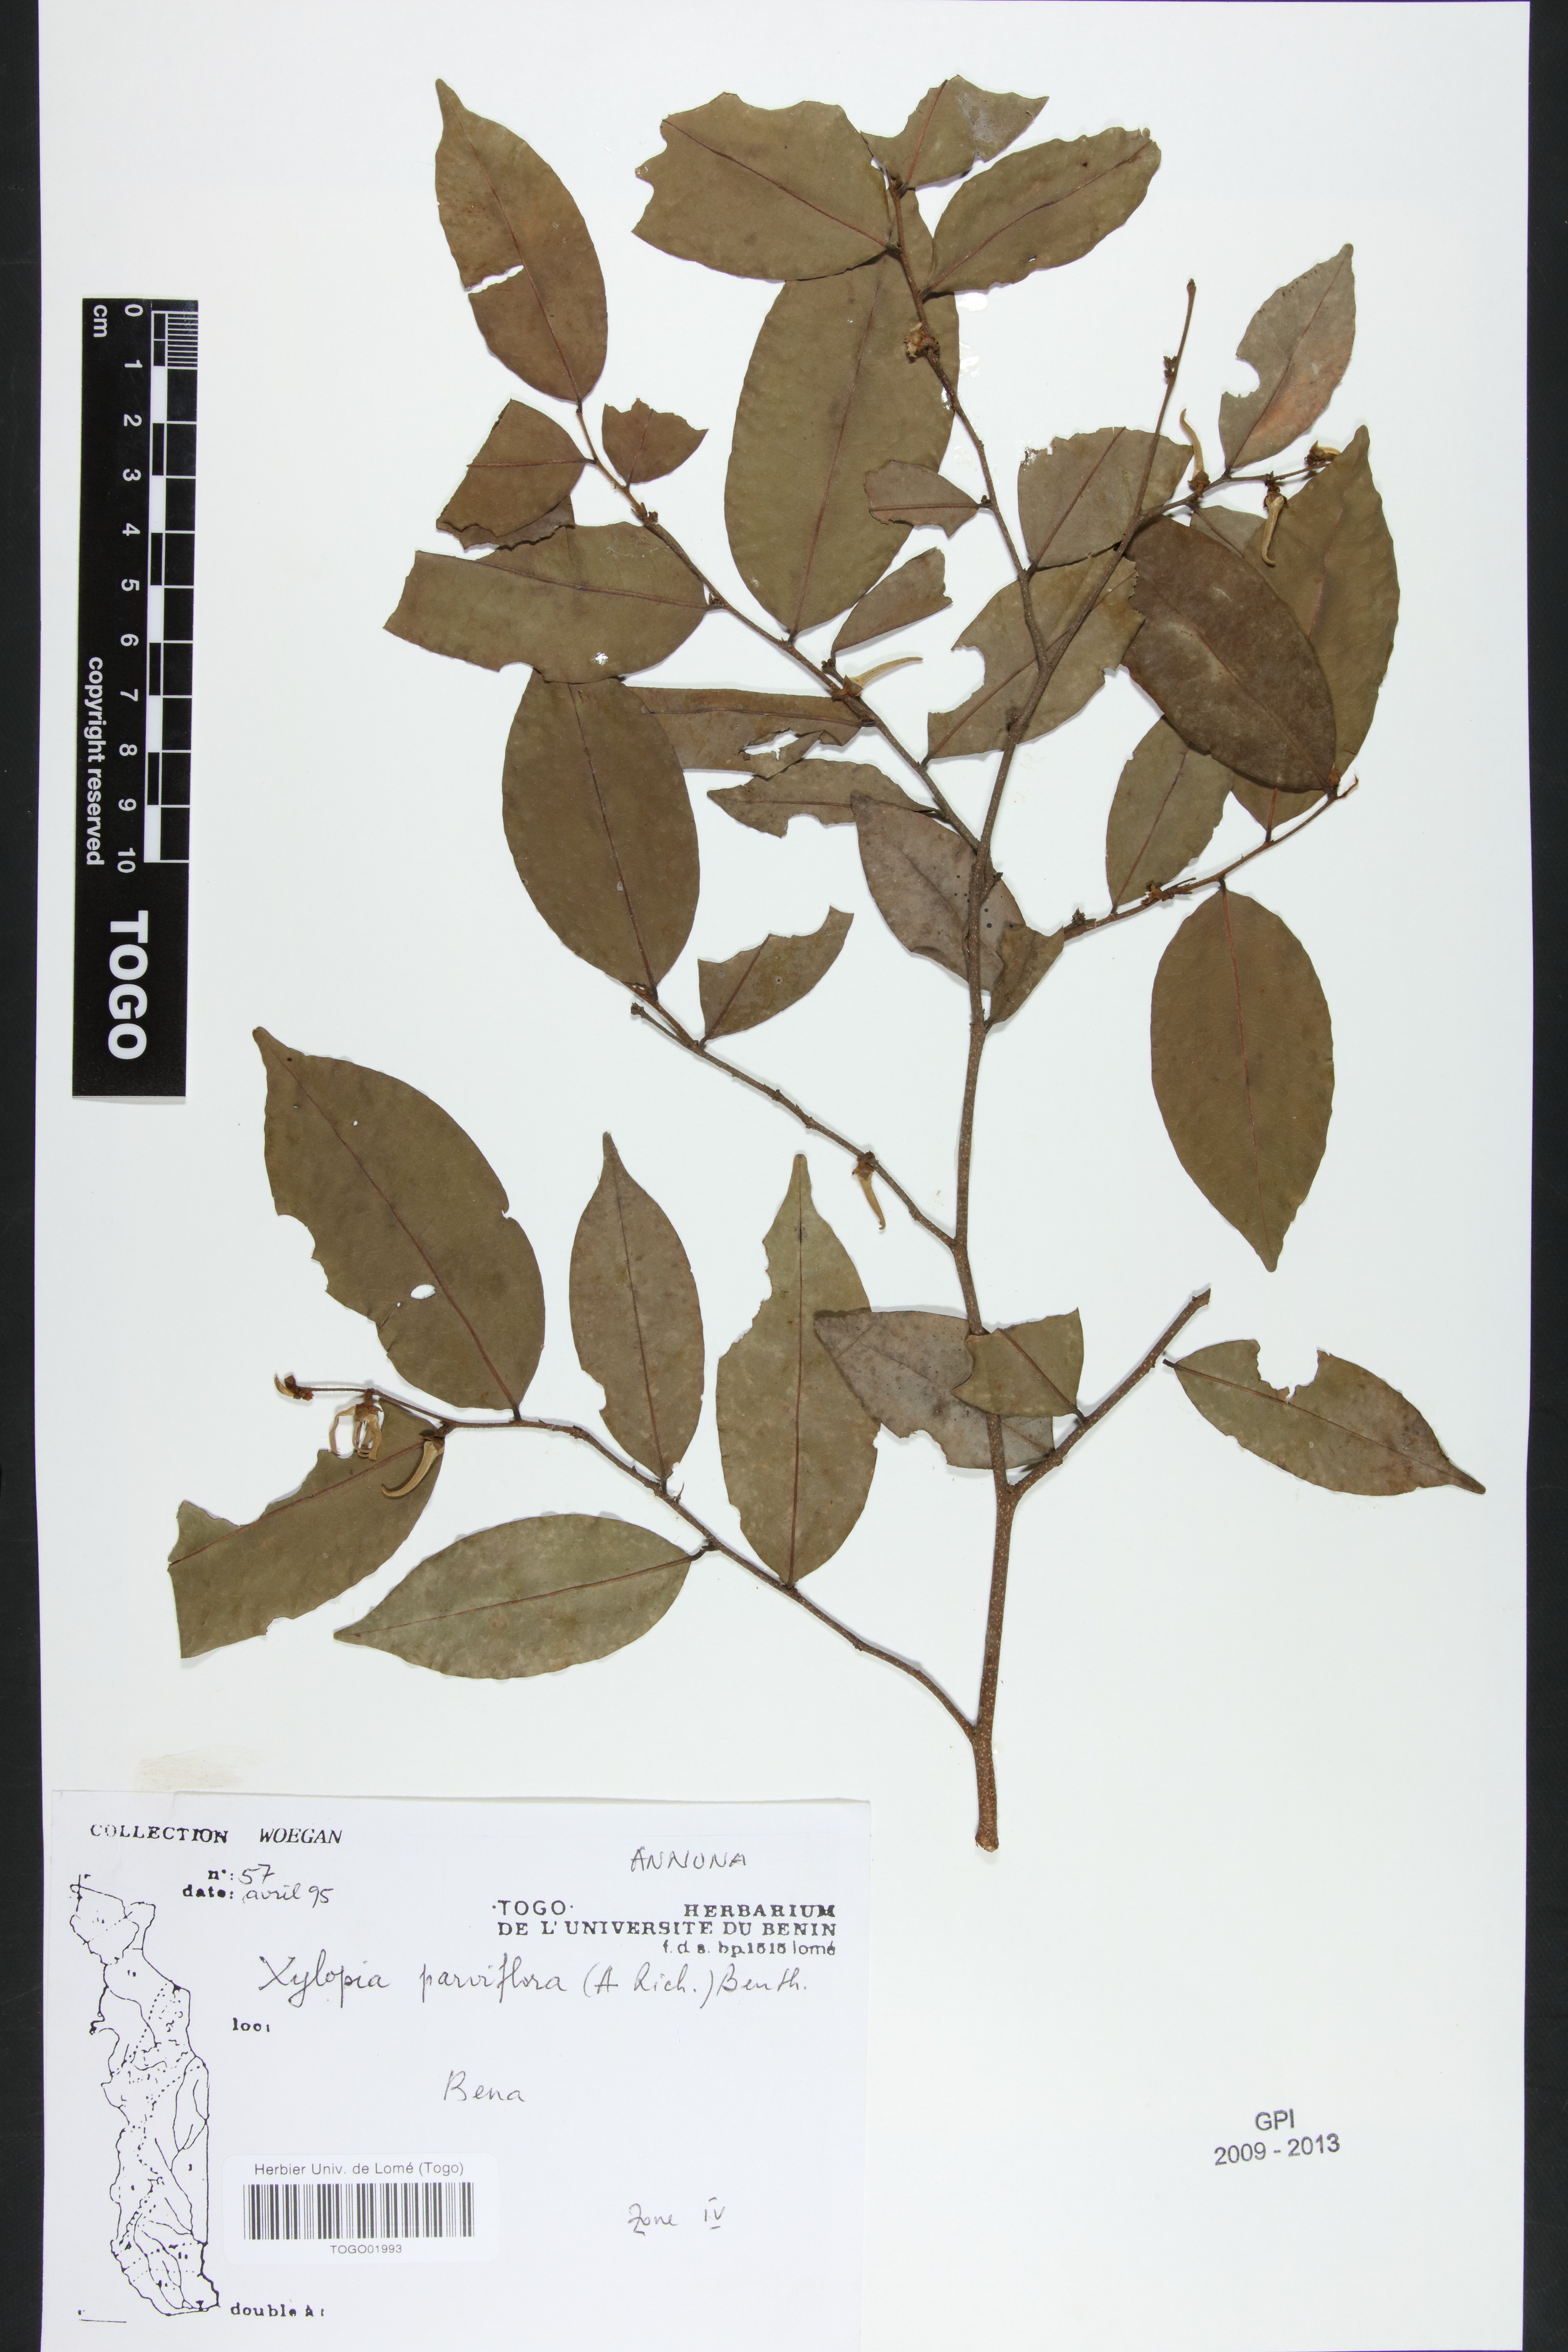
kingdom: Plantae
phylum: Tracheophyta
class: Magnoliopsida
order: Magnoliales
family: Annonaceae
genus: Xylopia
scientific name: Xylopia parviflora
